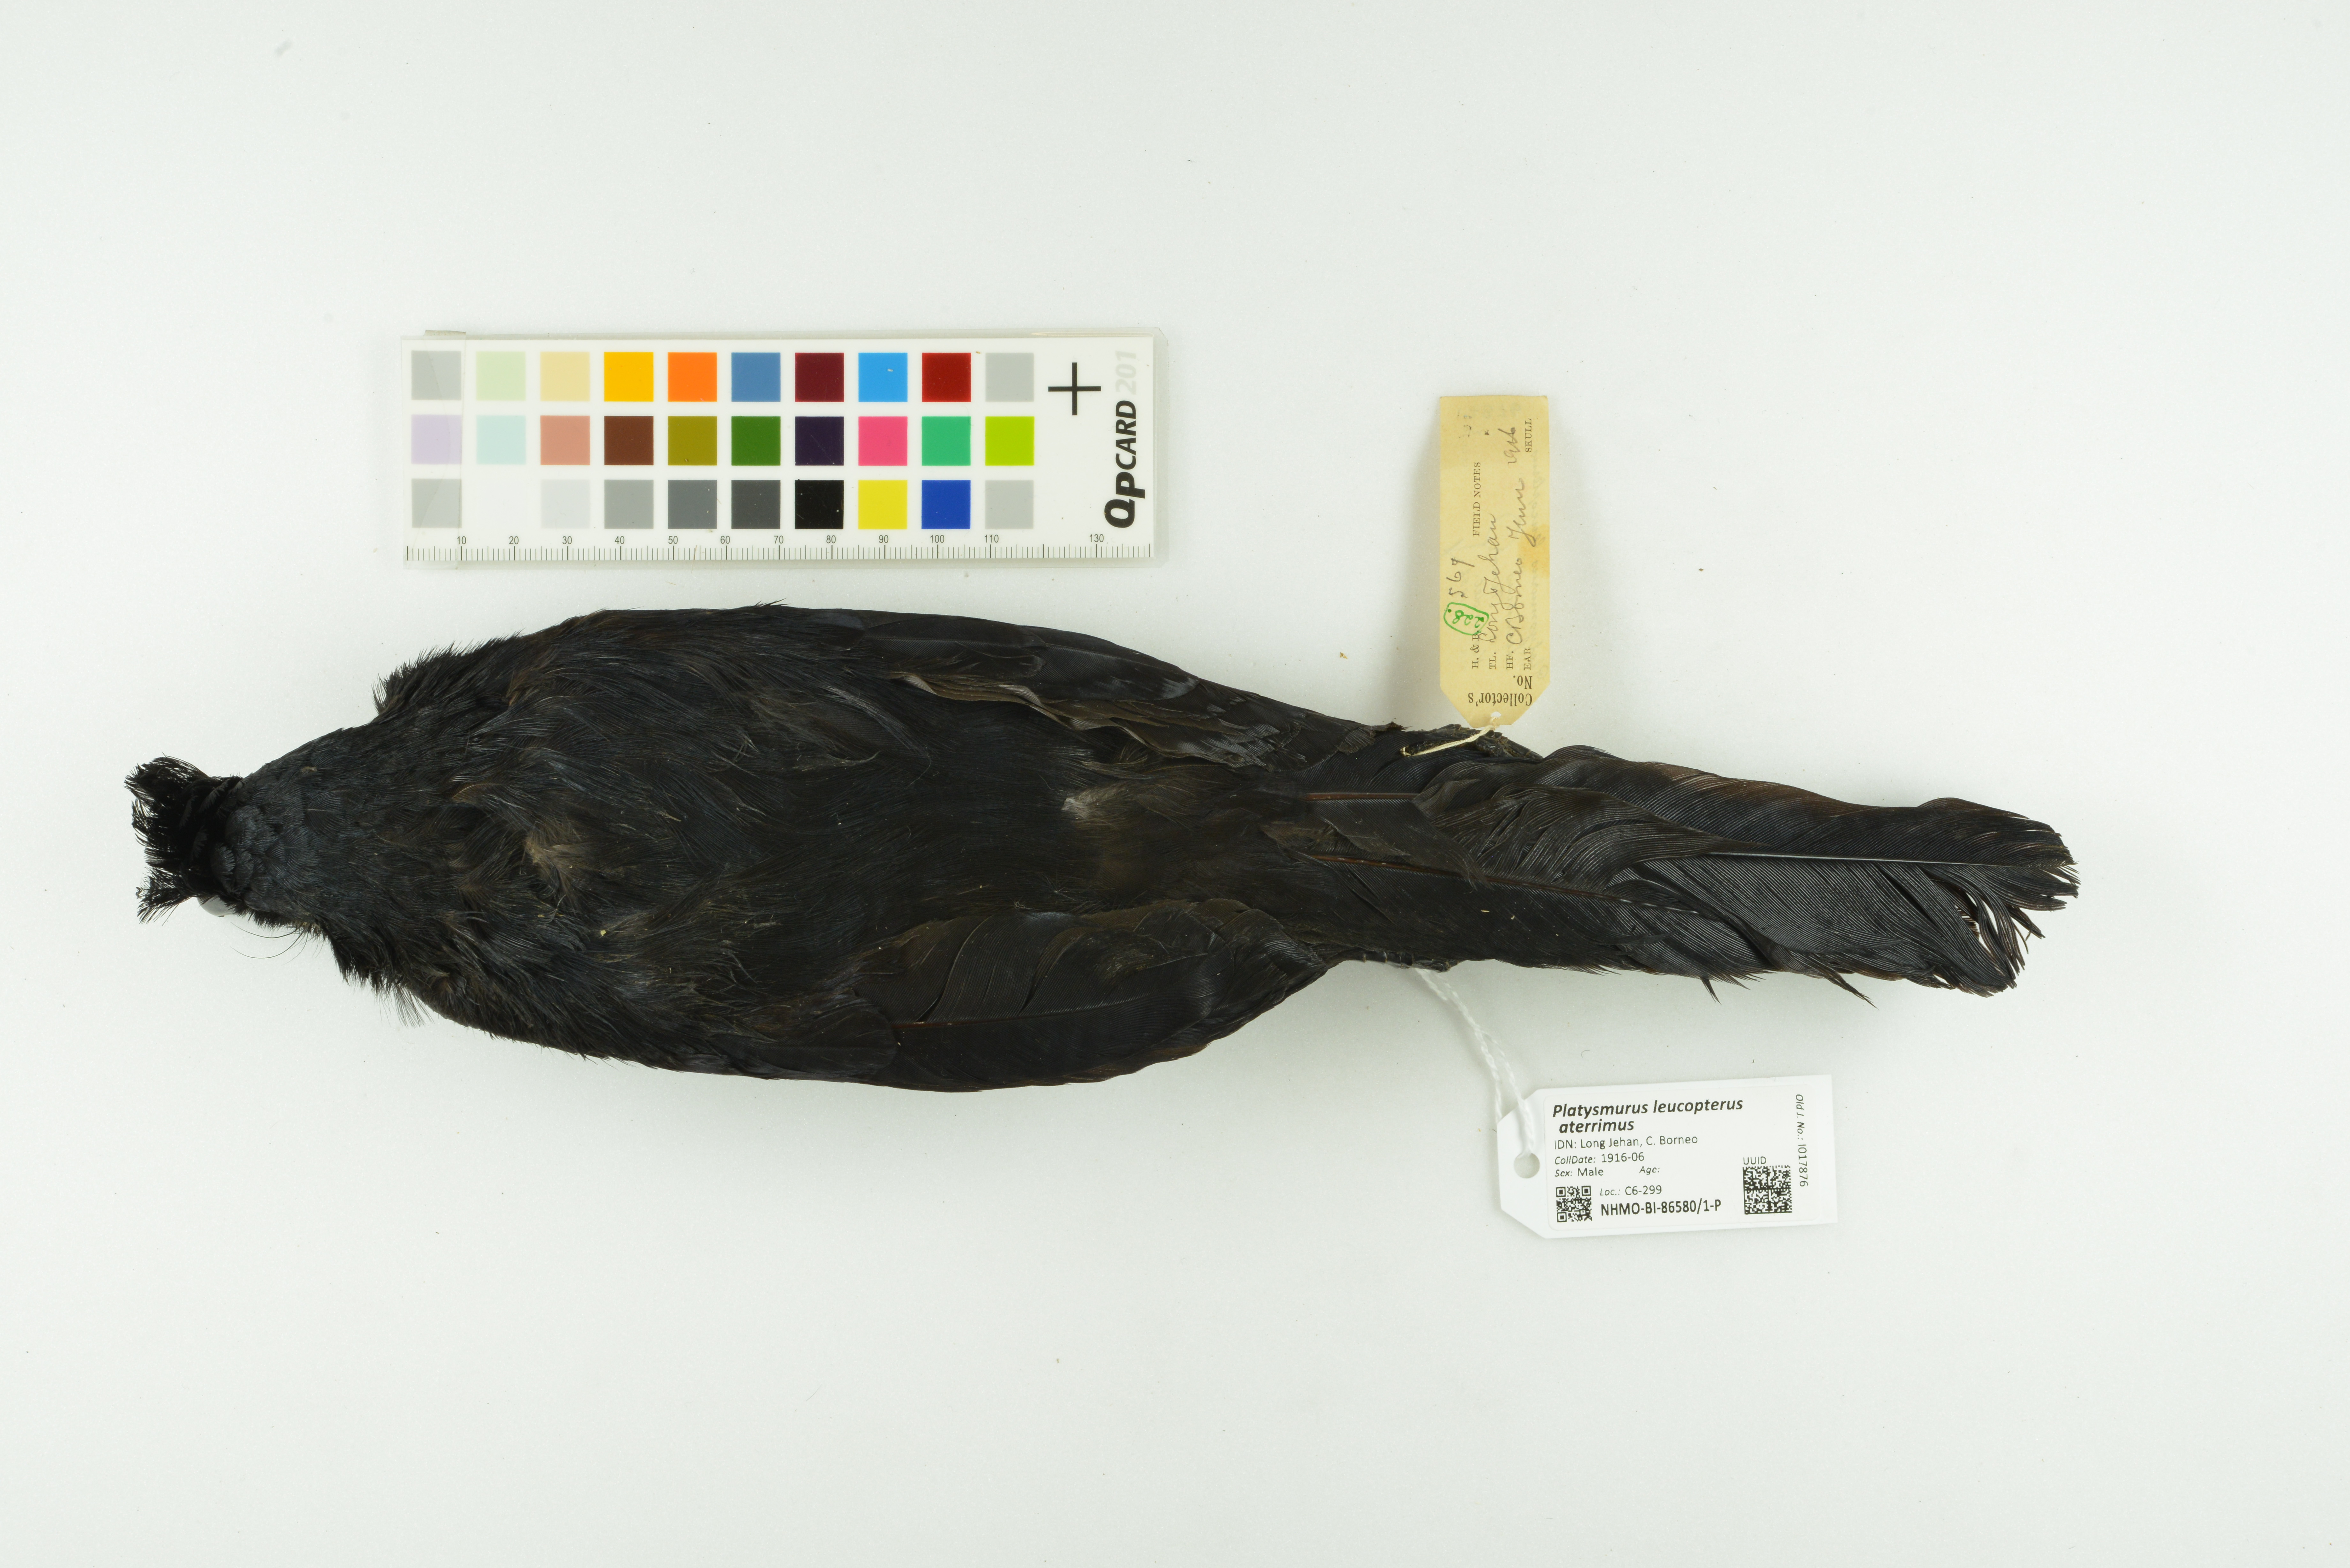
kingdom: Animalia
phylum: Chordata
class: Aves
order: Passeriformes
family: Corvidae
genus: Platysmurus
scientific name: Platysmurus leucopterus
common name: Black magpie
